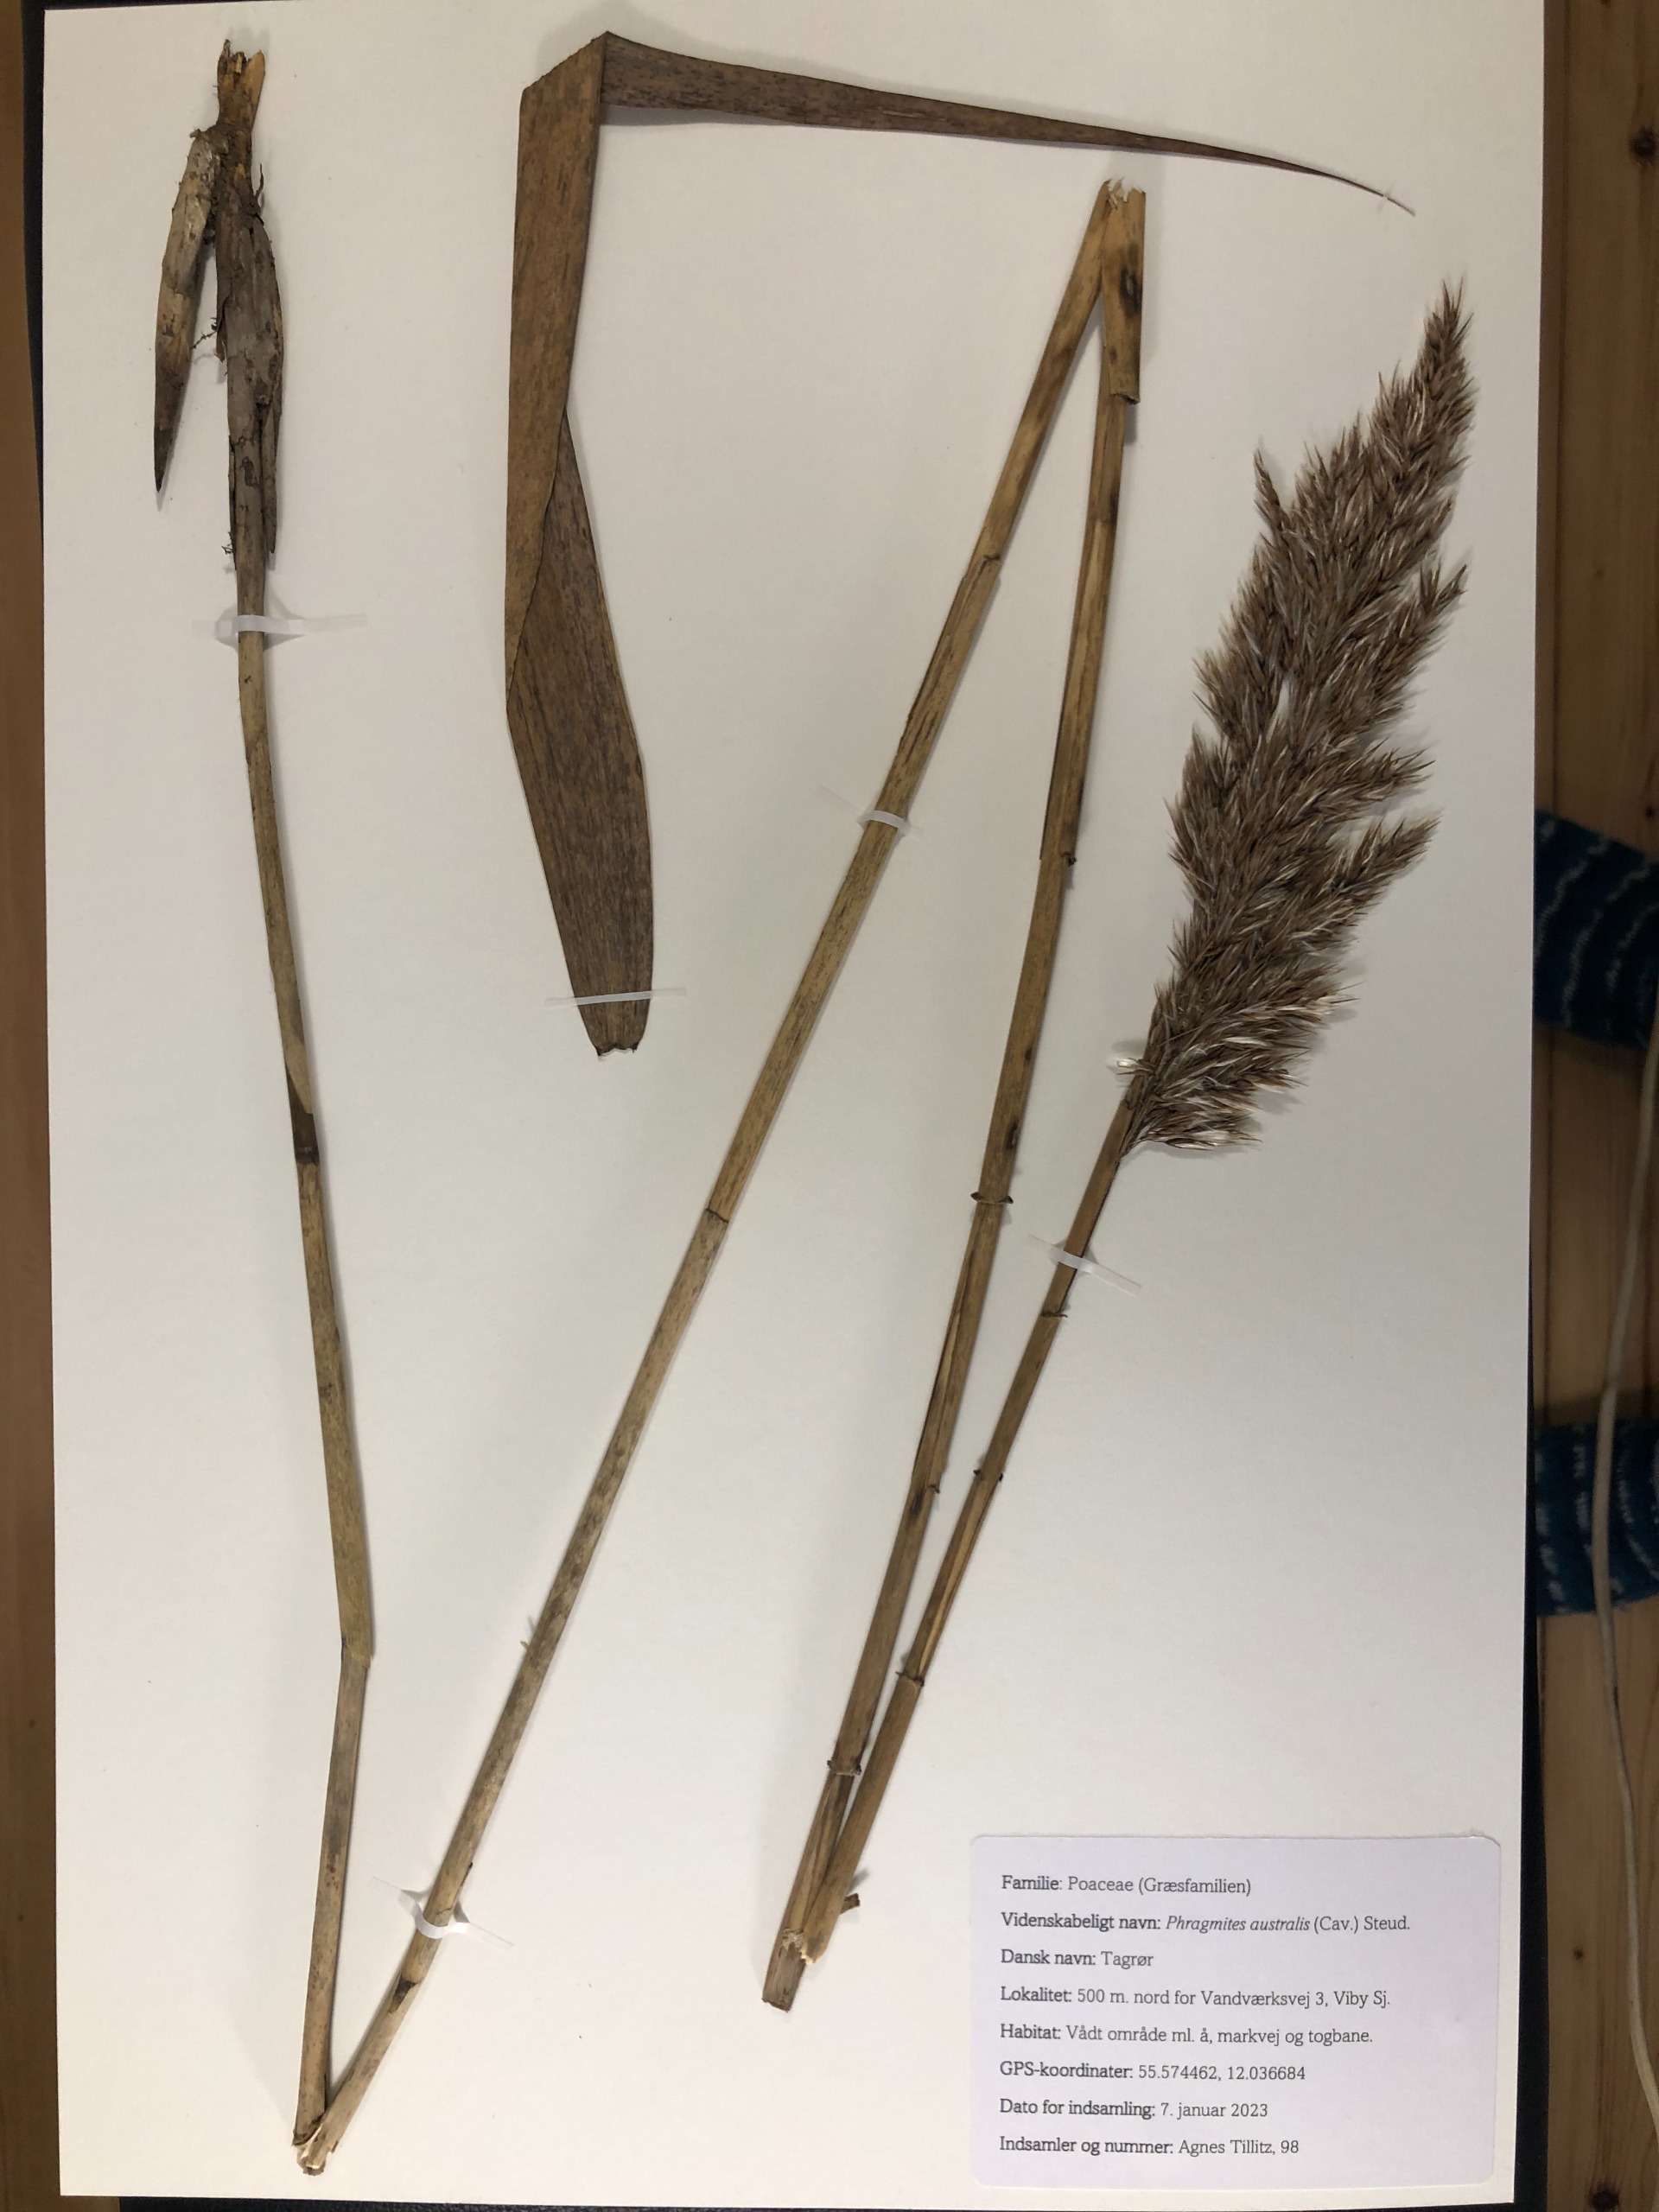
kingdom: Plantae
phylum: Tracheophyta
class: Liliopsida
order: Poales
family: Poaceae
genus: Phragmites
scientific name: Phragmites australis
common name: Tagrør
